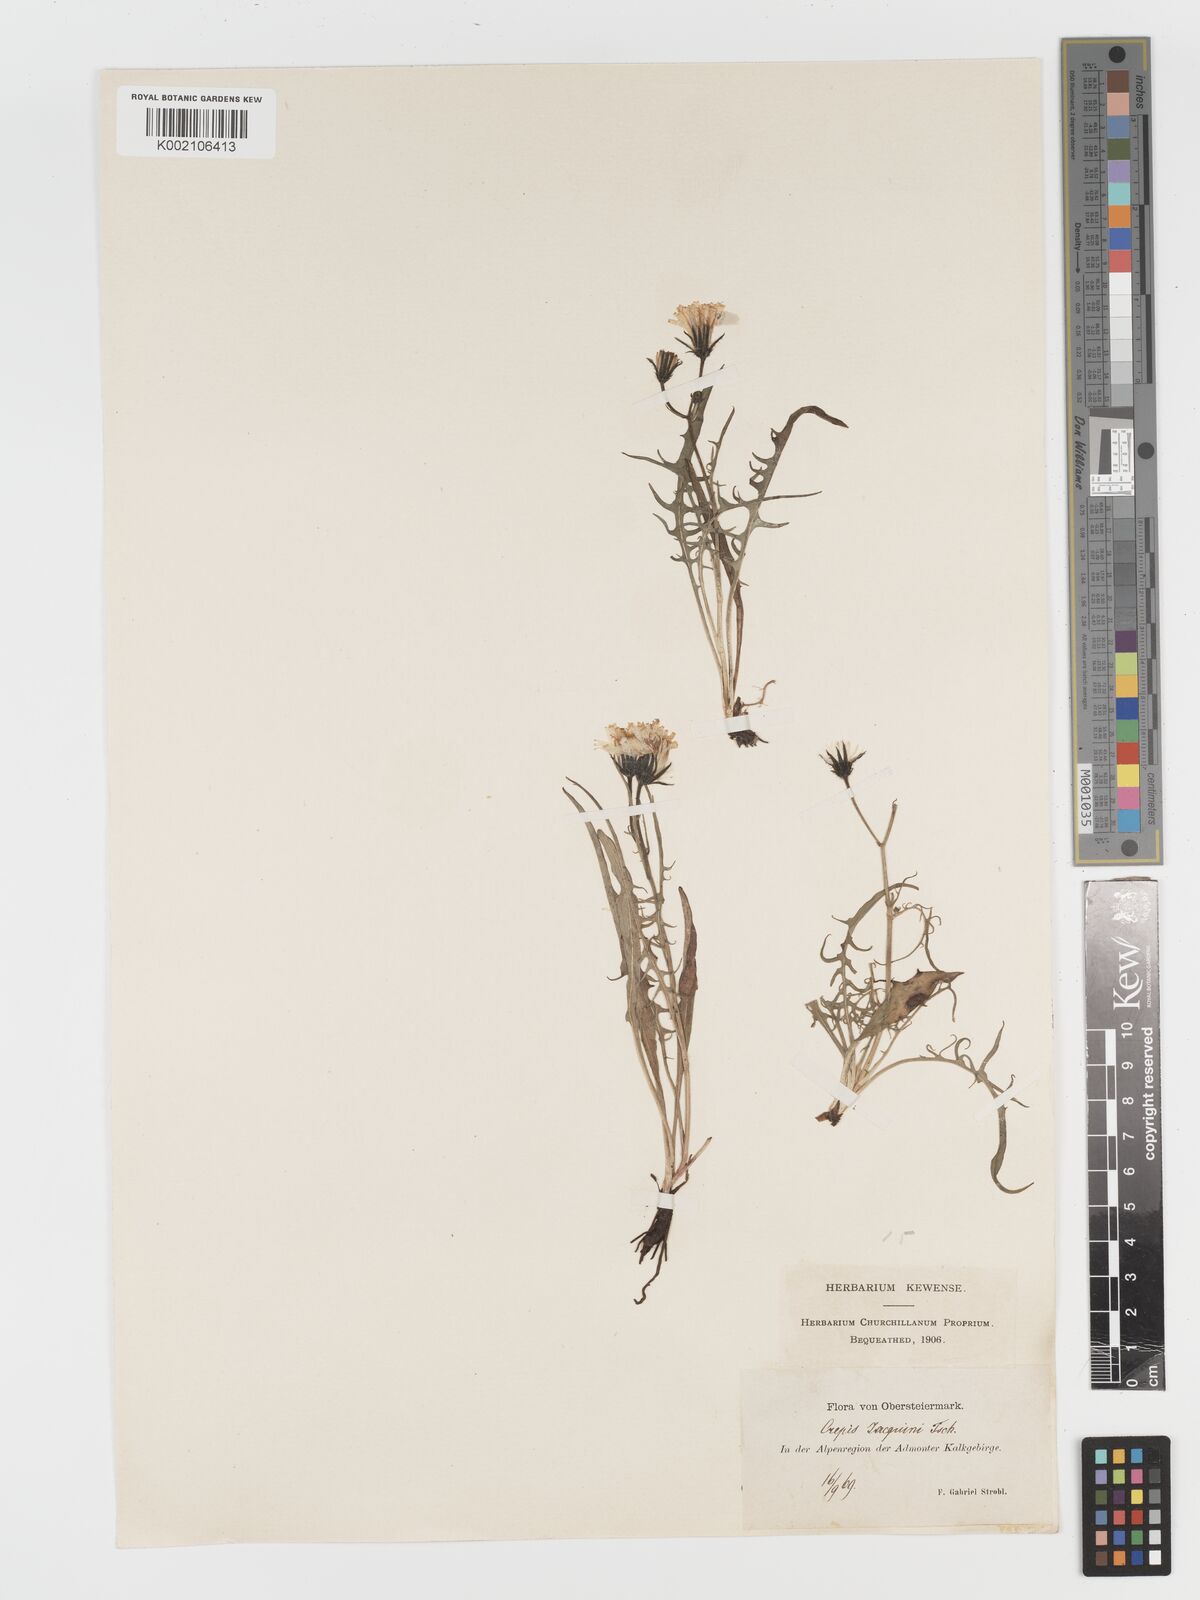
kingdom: Plantae
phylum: Tracheophyta
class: Magnoliopsida
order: Asterales
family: Asteraceae
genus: Crepis
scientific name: Crepis jacquinii
